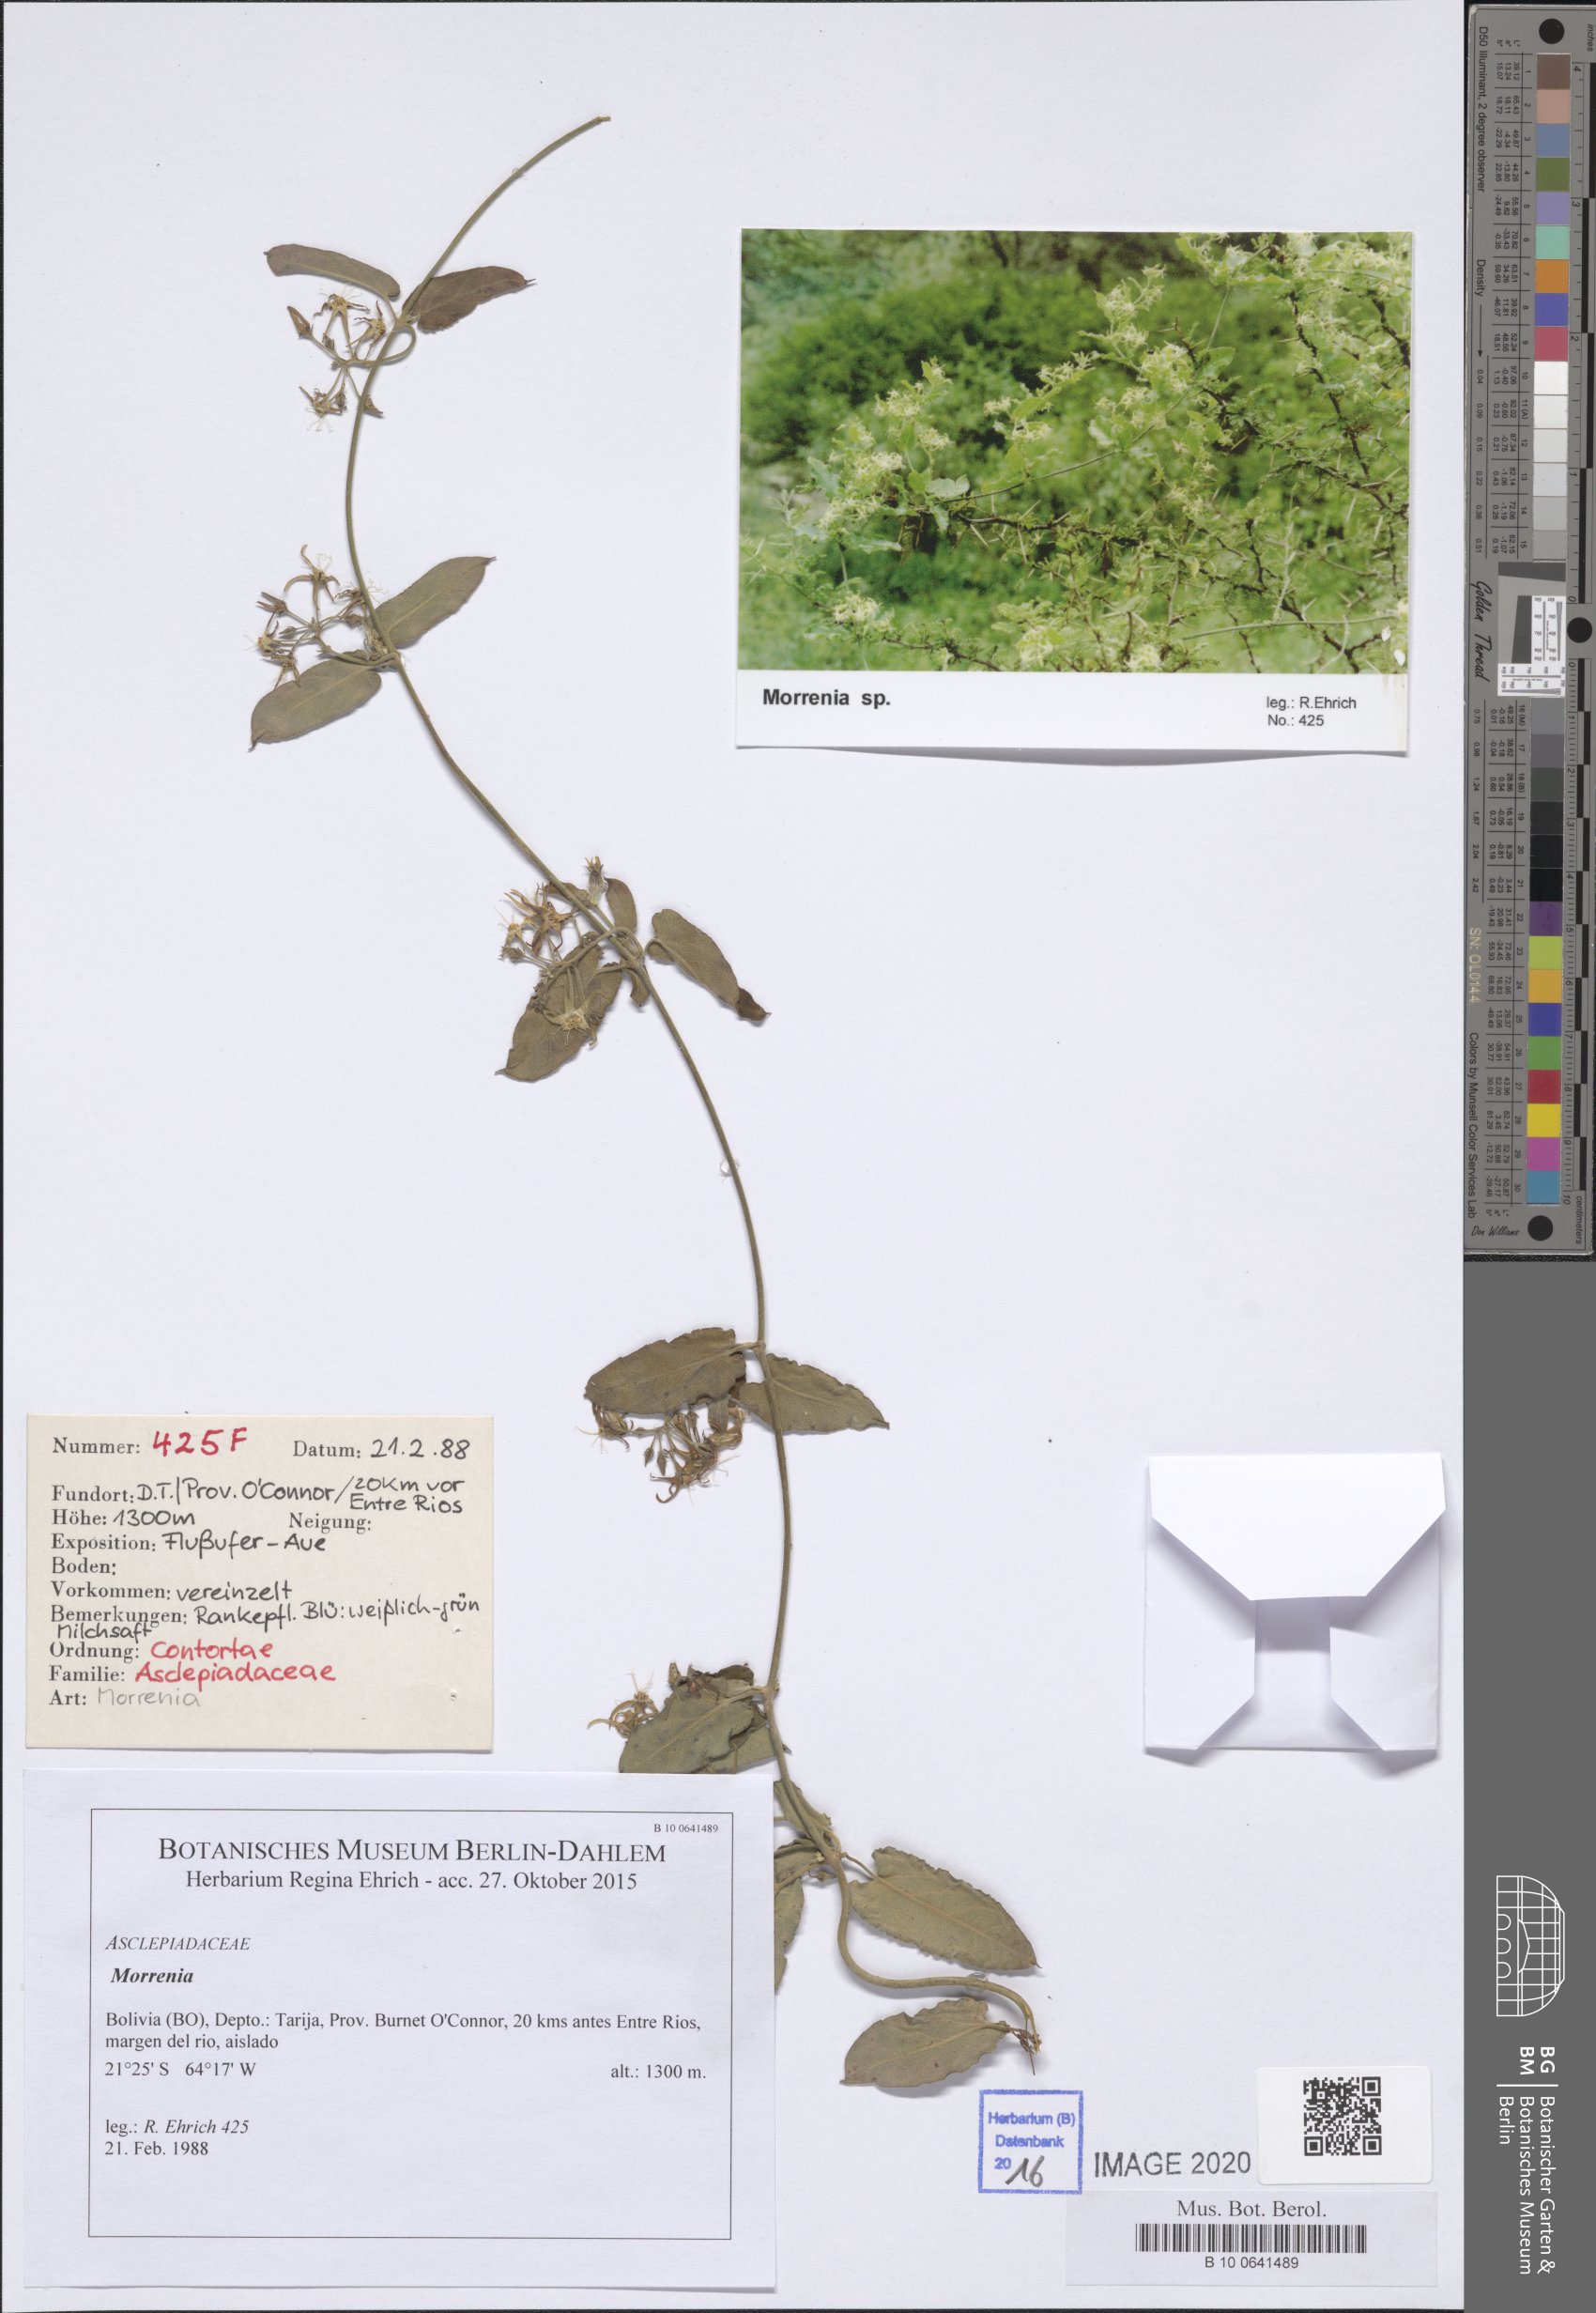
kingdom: Plantae
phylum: Tracheophyta
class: Magnoliopsida
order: Gentianales
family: Apocynaceae
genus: Araujia
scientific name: Araujia
